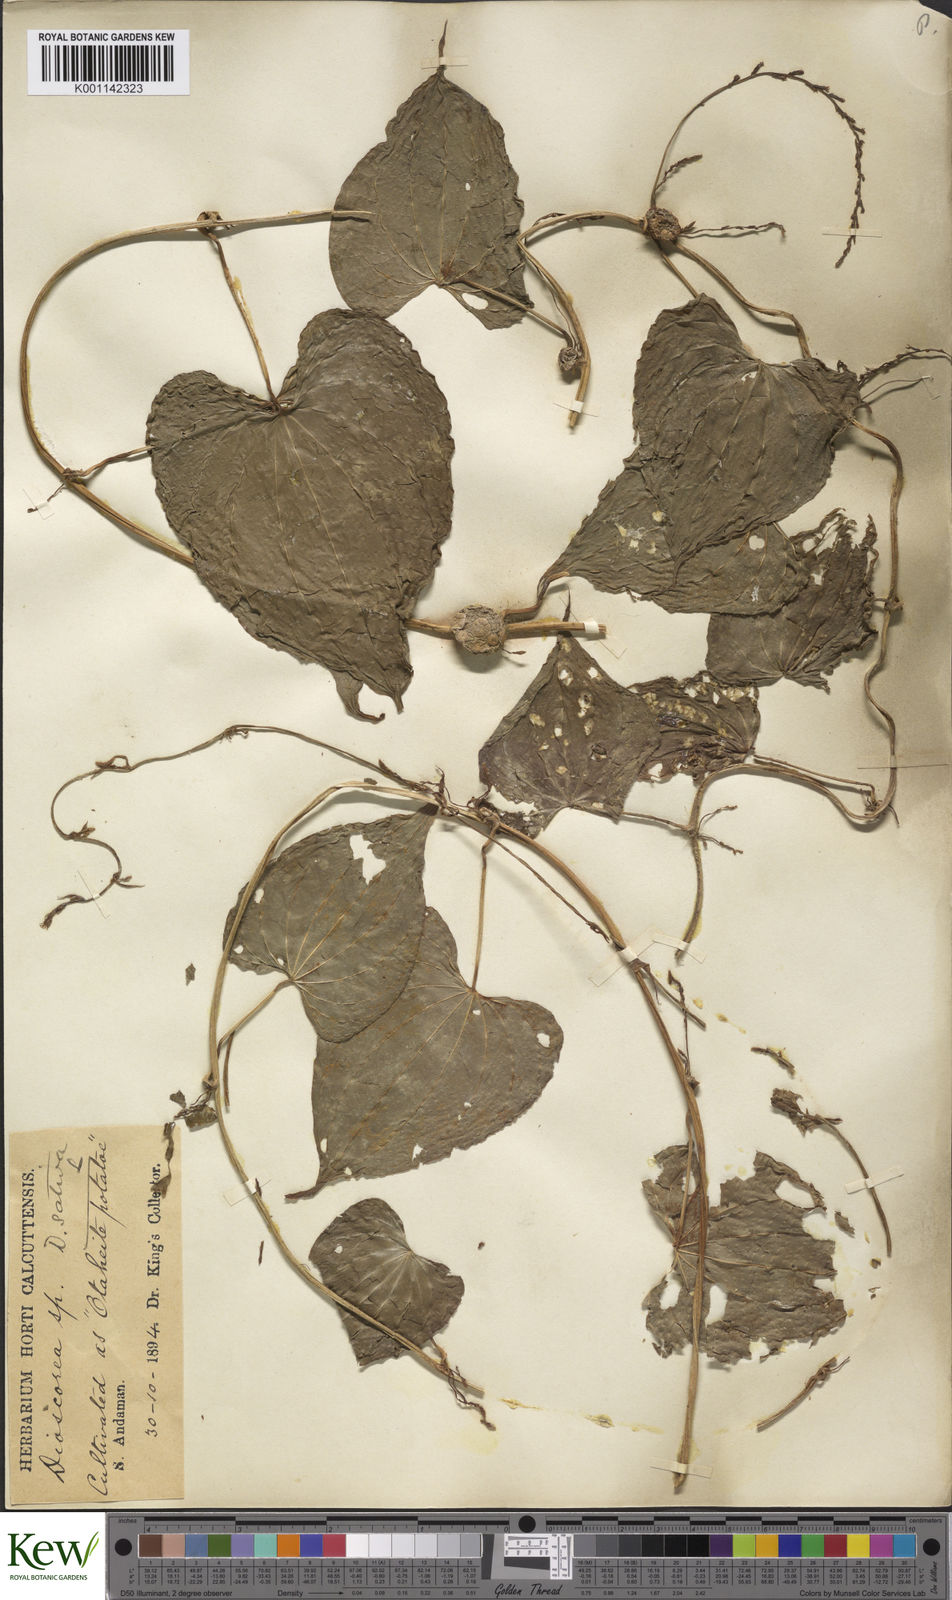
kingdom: Plantae
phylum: Tracheophyta
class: Liliopsida
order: Dioscoreales
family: Dioscoreaceae
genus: Dioscorea
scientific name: Dioscorea bulbifera
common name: Air yam
